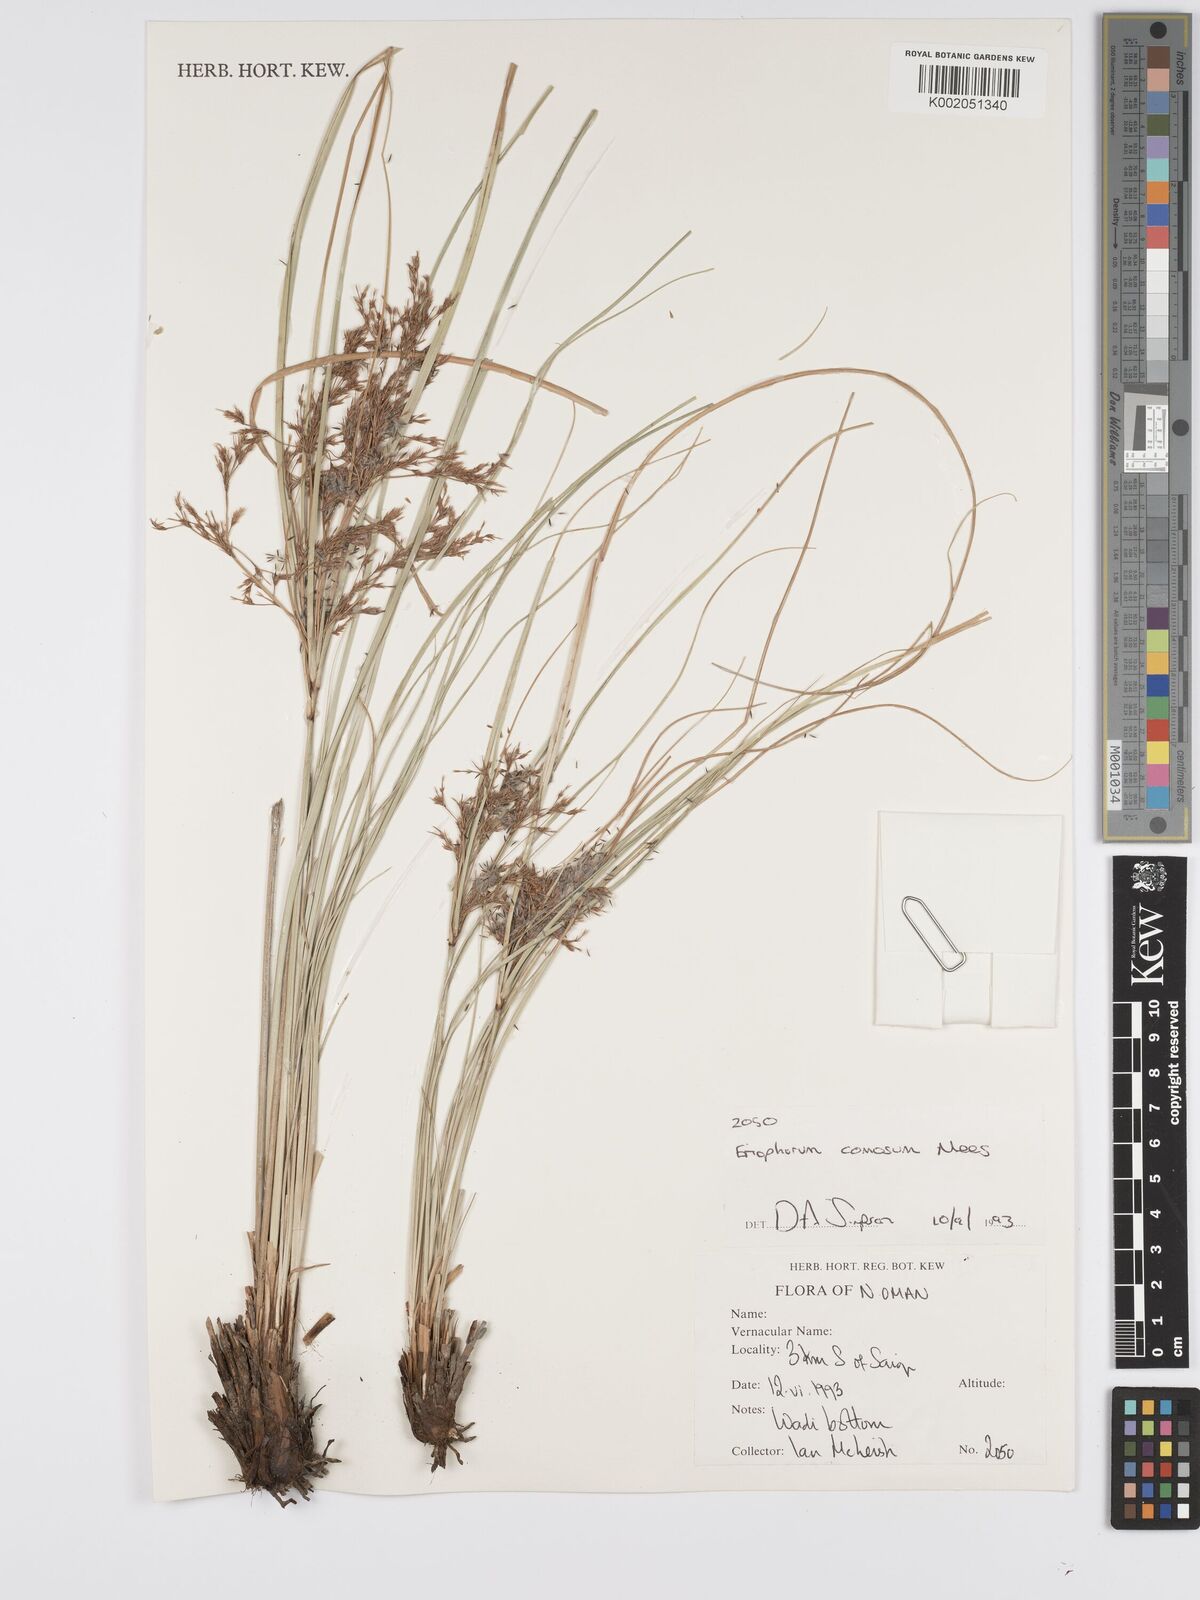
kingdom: Plantae
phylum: Tracheophyta
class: Liliopsida
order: Poales
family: Cyperaceae
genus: Erioscirpus
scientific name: Erioscirpus comosus
